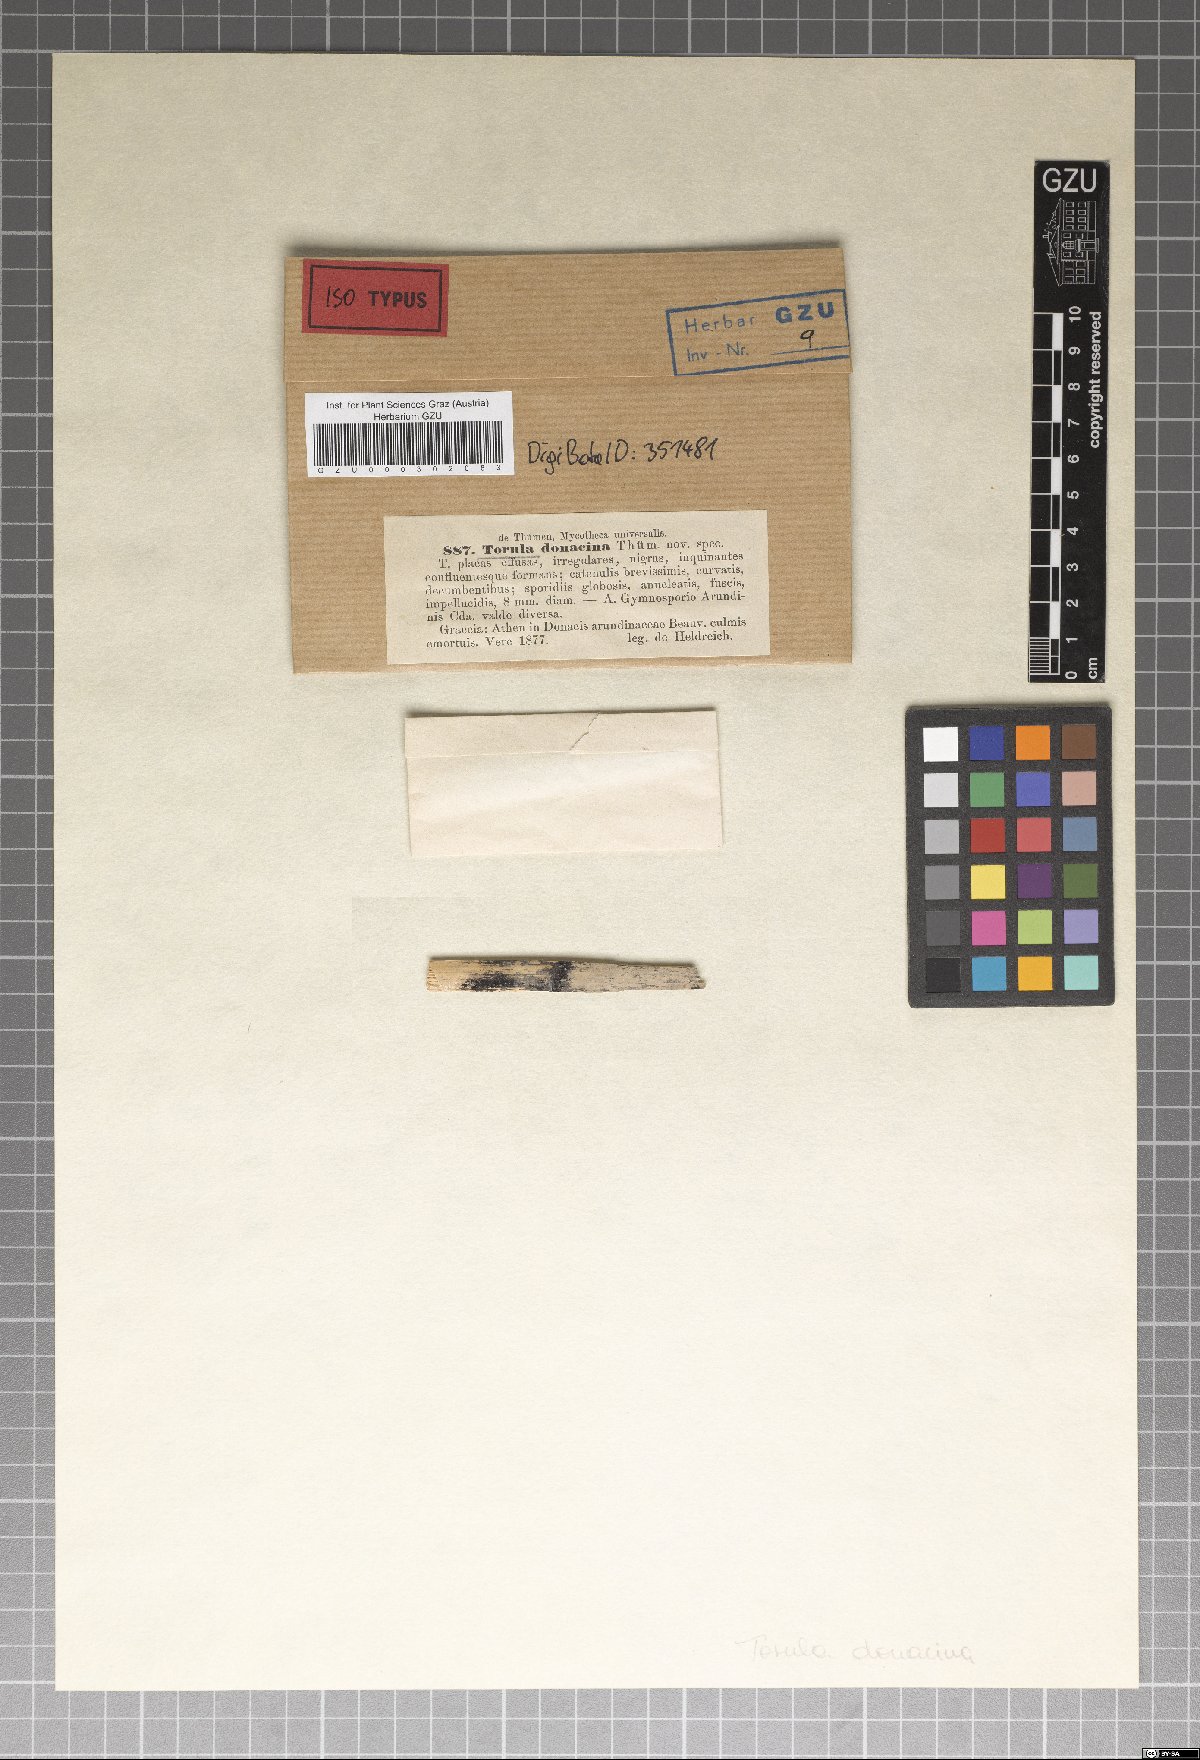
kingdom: Fungi
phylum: Ascomycota
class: Sordariomycetes
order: Xylariales
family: Apiosporaceae
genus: Apiospora
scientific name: Apiospora arundinis
